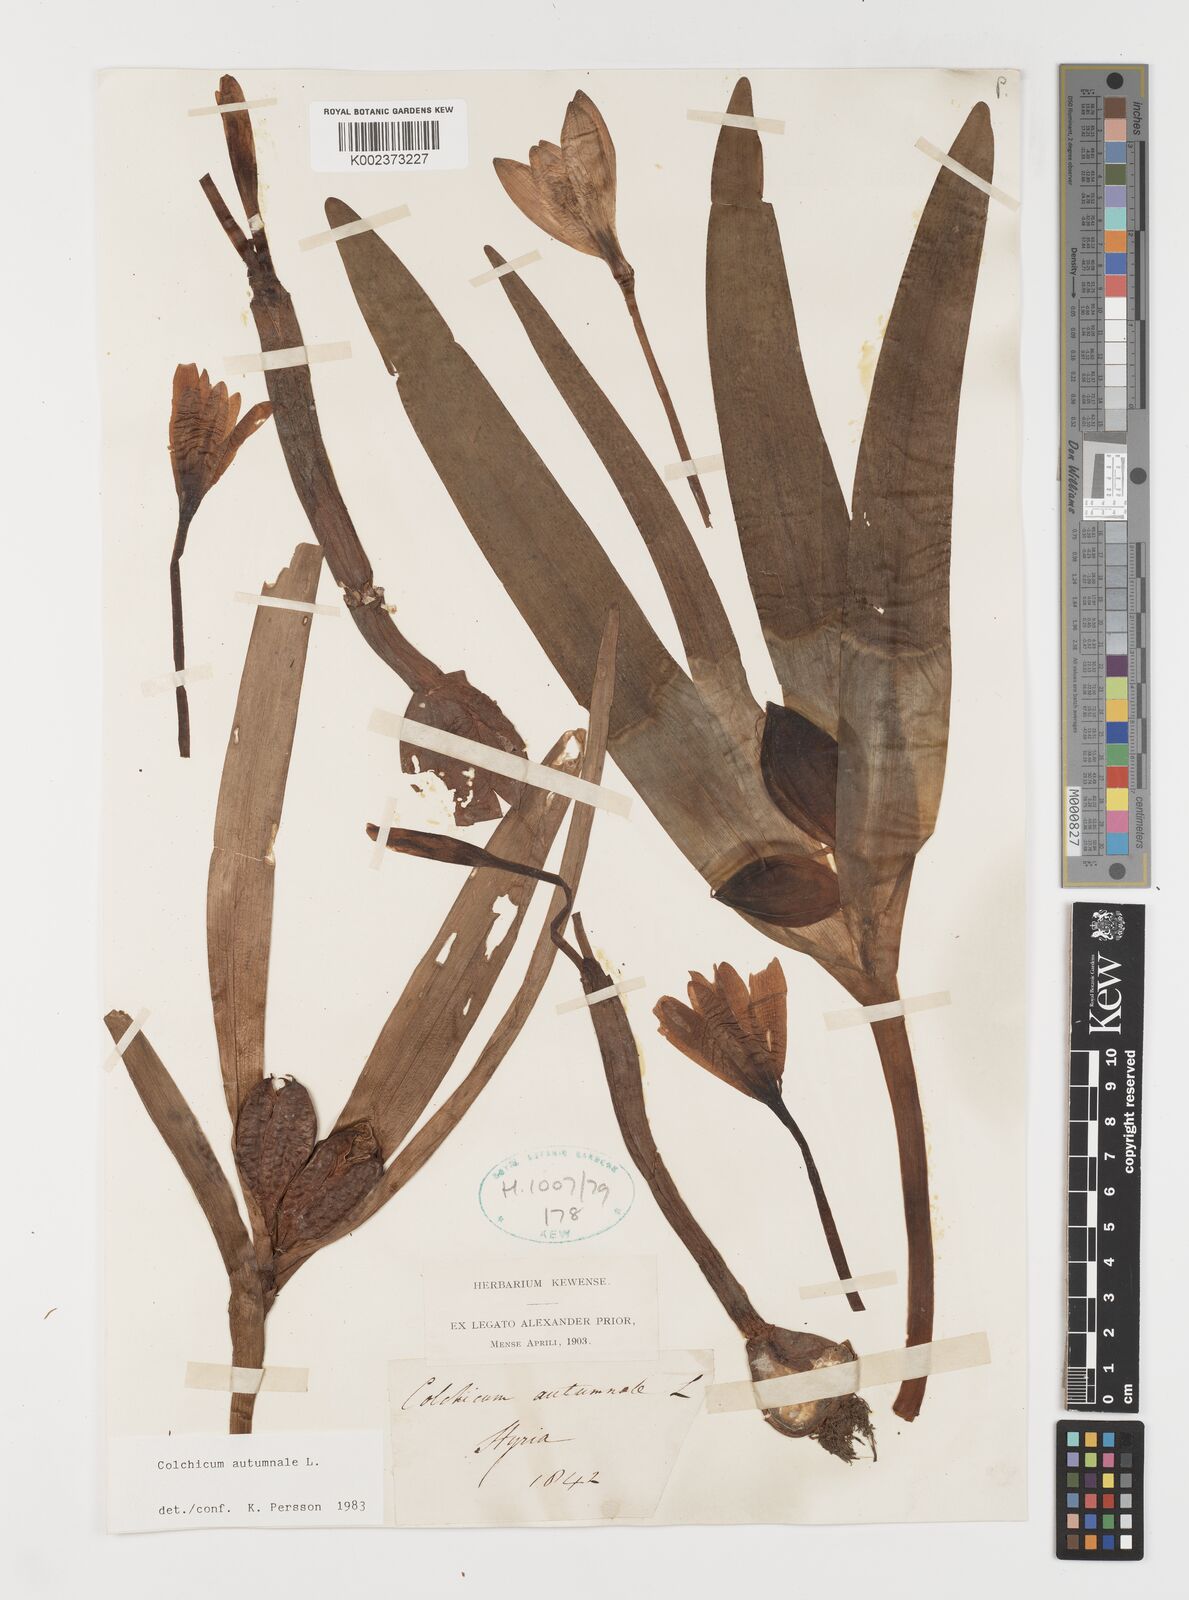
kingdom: Plantae
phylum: Tracheophyta
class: Liliopsida
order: Liliales
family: Colchicaceae
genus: Colchicum
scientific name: Colchicum autumnale
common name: Autumn crocus
